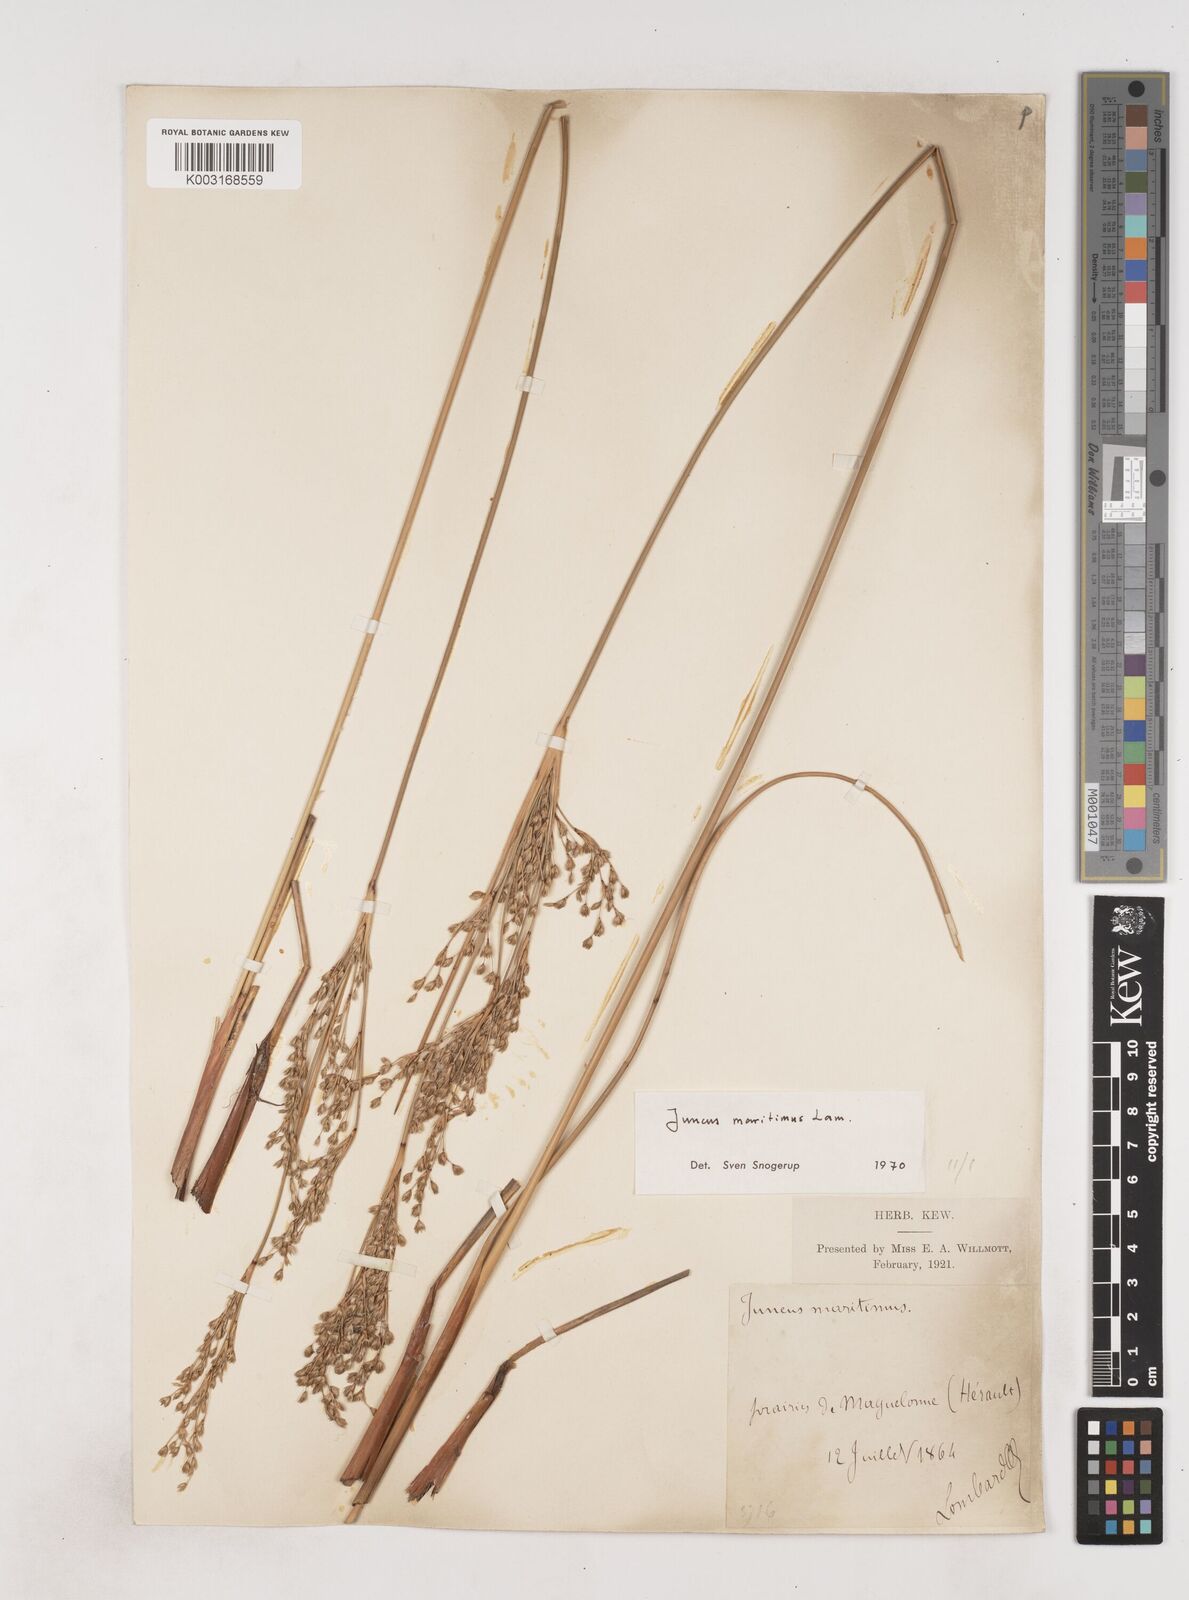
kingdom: Plantae
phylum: Tracheophyta
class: Liliopsida
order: Poales
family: Juncaceae
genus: Juncus
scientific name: Juncus maritimus
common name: Sea rush
